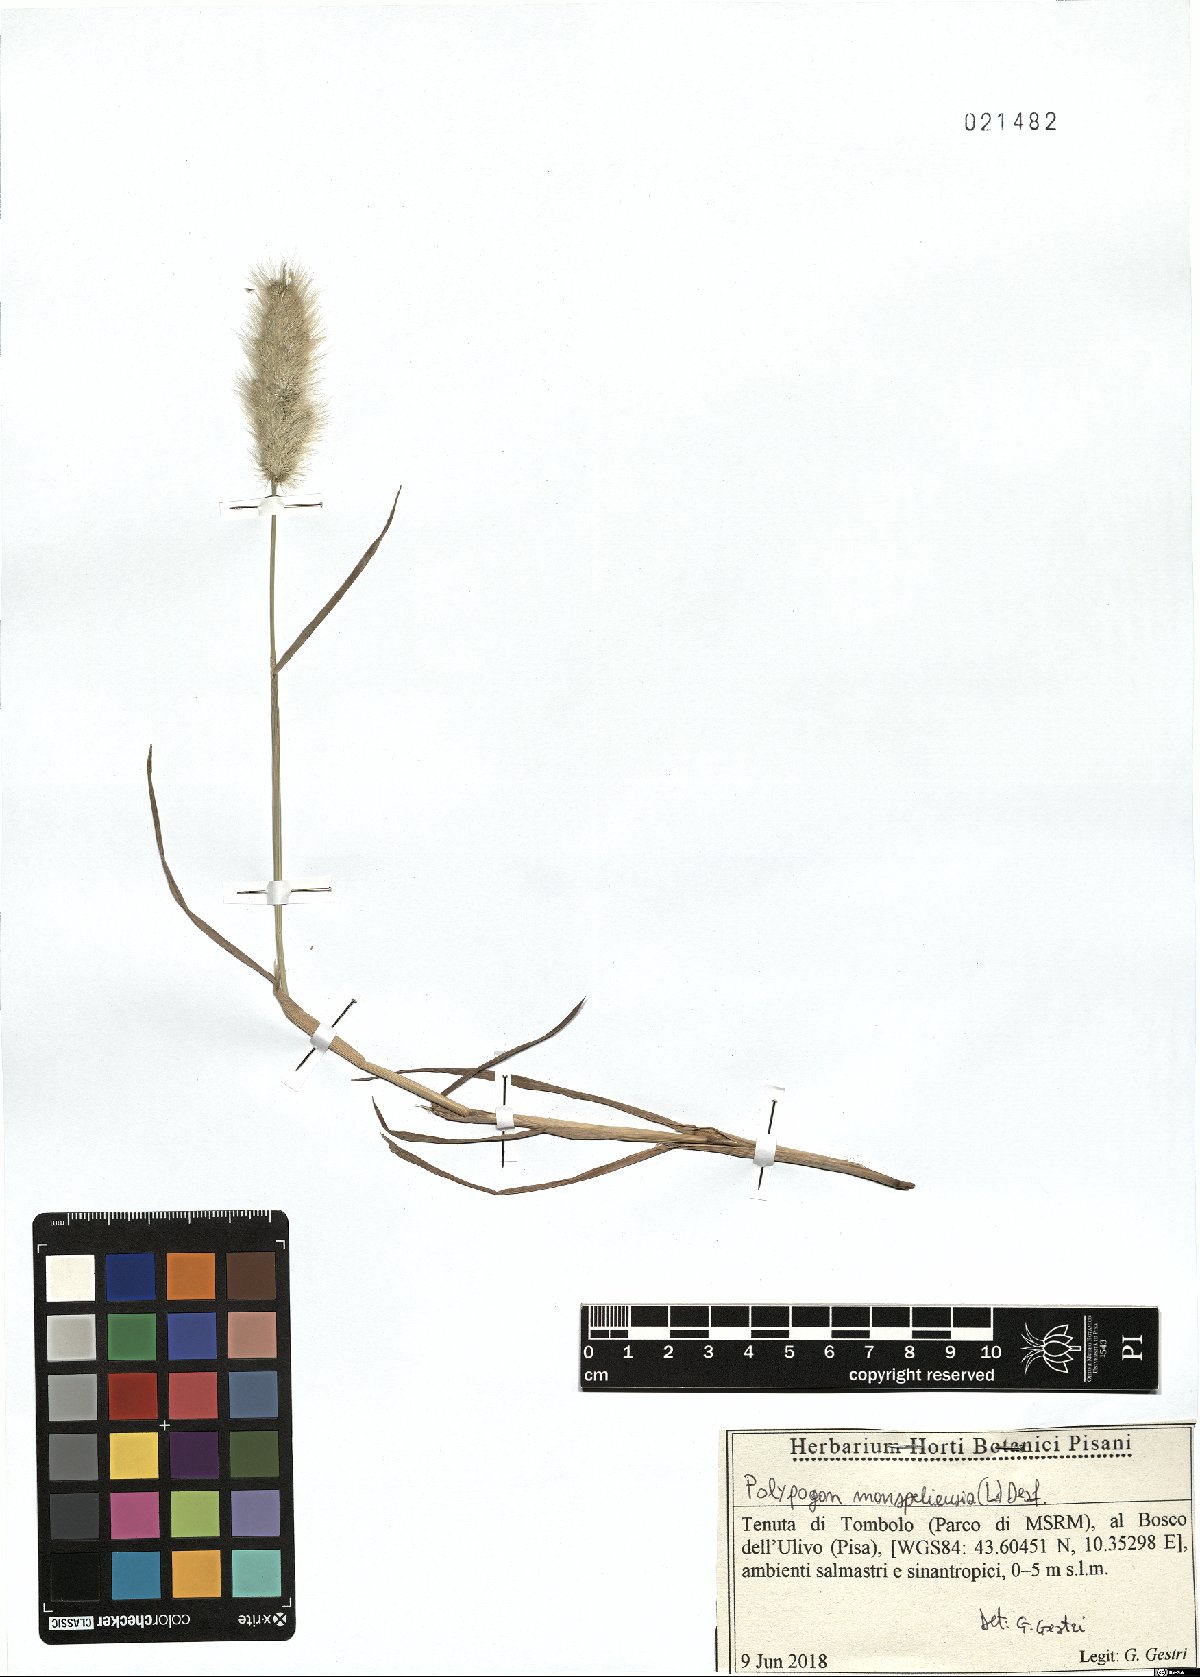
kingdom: Plantae
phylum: Tracheophyta
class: Liliopsida
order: Poales
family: Poaceae
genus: Polypogon
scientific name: Polypogon monspeliensis
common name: Annual rabbitsfoot grass
